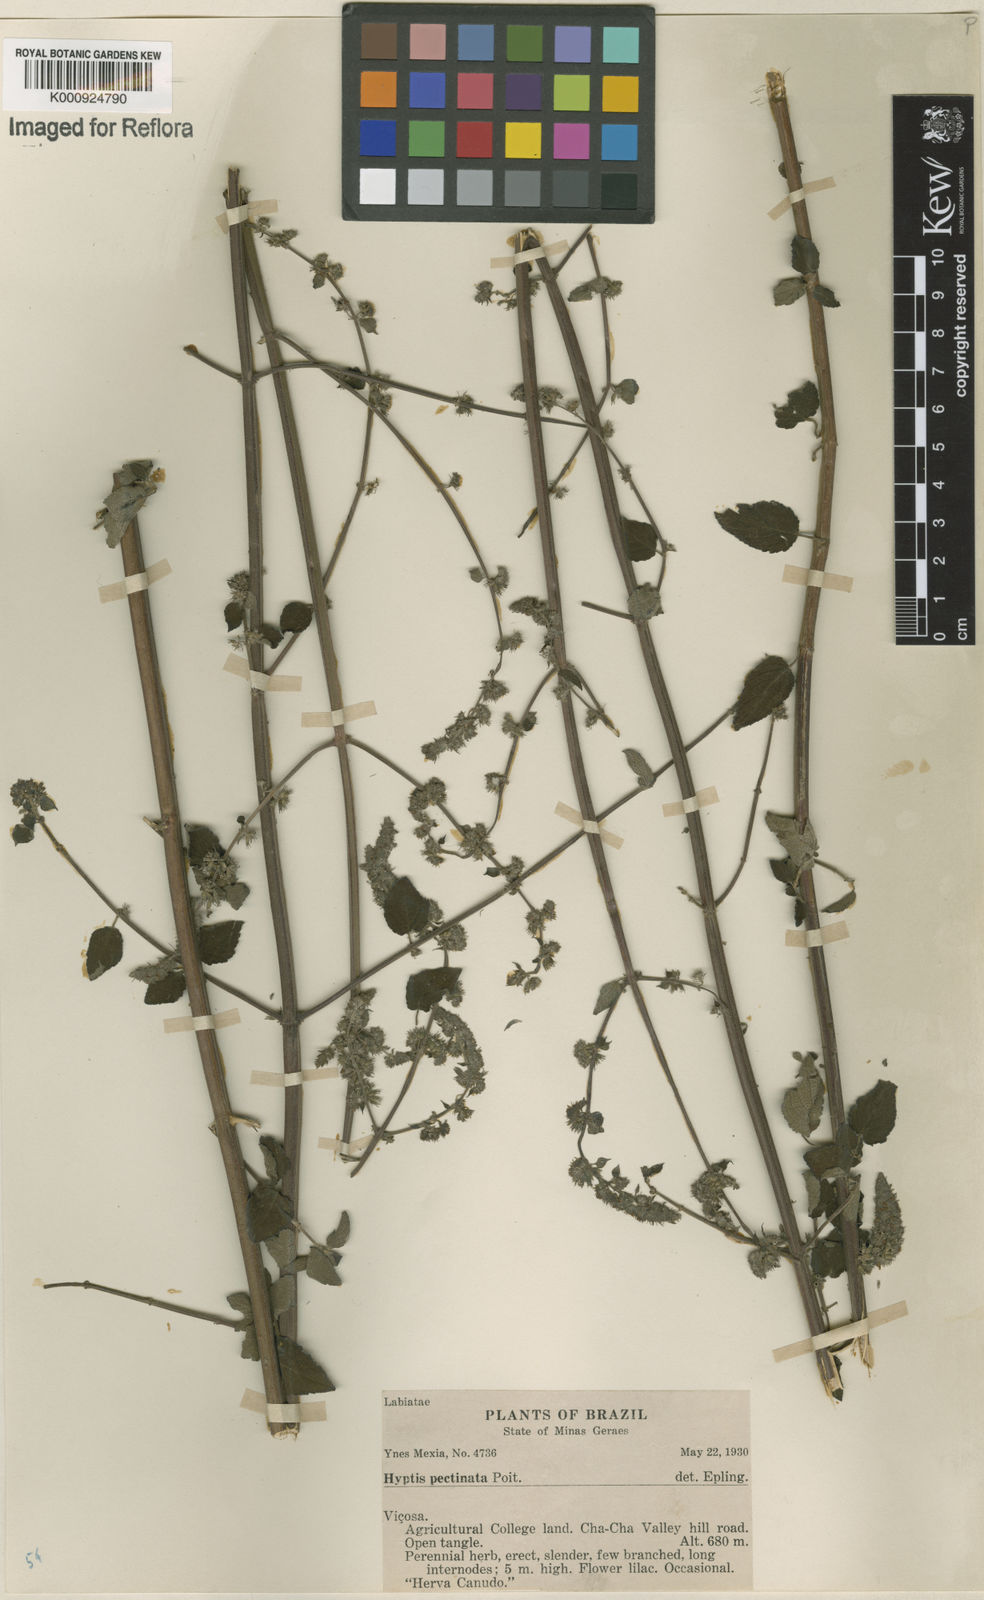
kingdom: Plantae
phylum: Tracheophyta
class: Magnoliopsida
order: Lamiales
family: Lamiaceae
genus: Mesosphaerum
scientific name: Mesosphaerum pectinatum
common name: Comb hyptis
